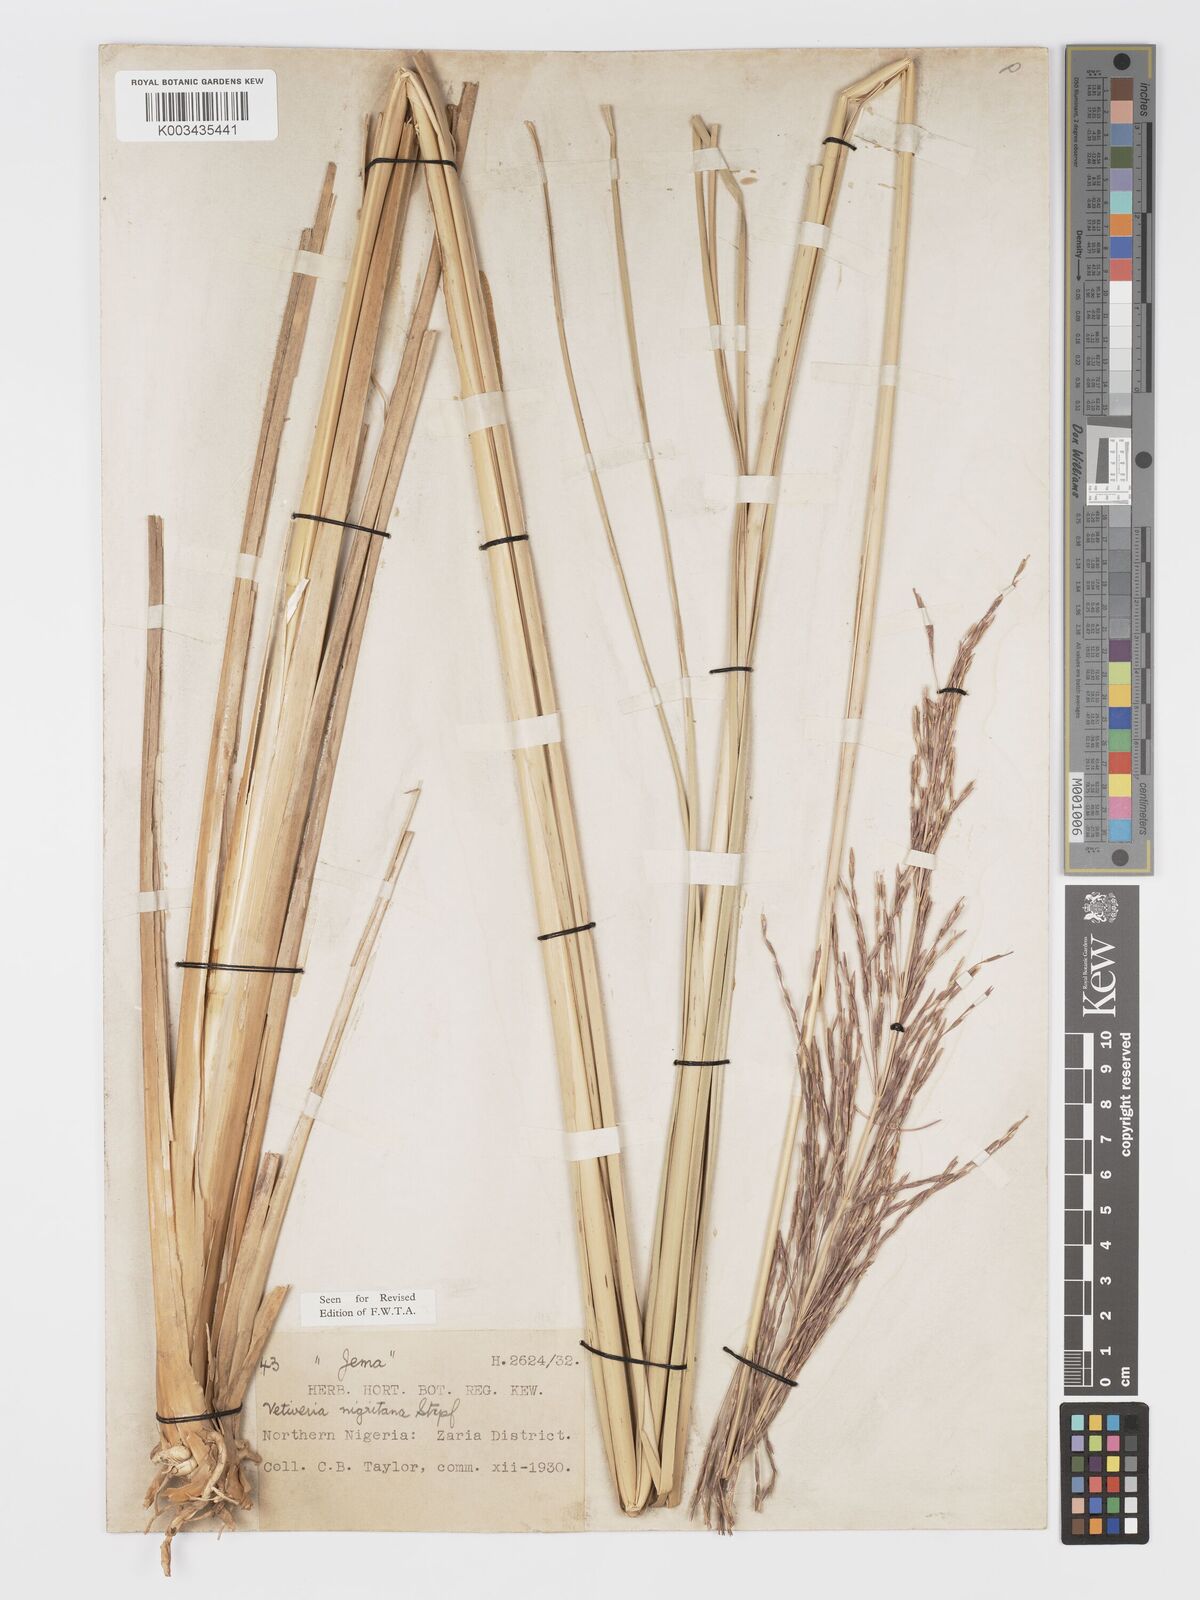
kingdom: Plantae
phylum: Tracheophyta
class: Liliopsida
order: Poales
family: Poaceae
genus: Chrysopogon
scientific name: Chrysopogon nigritanus
